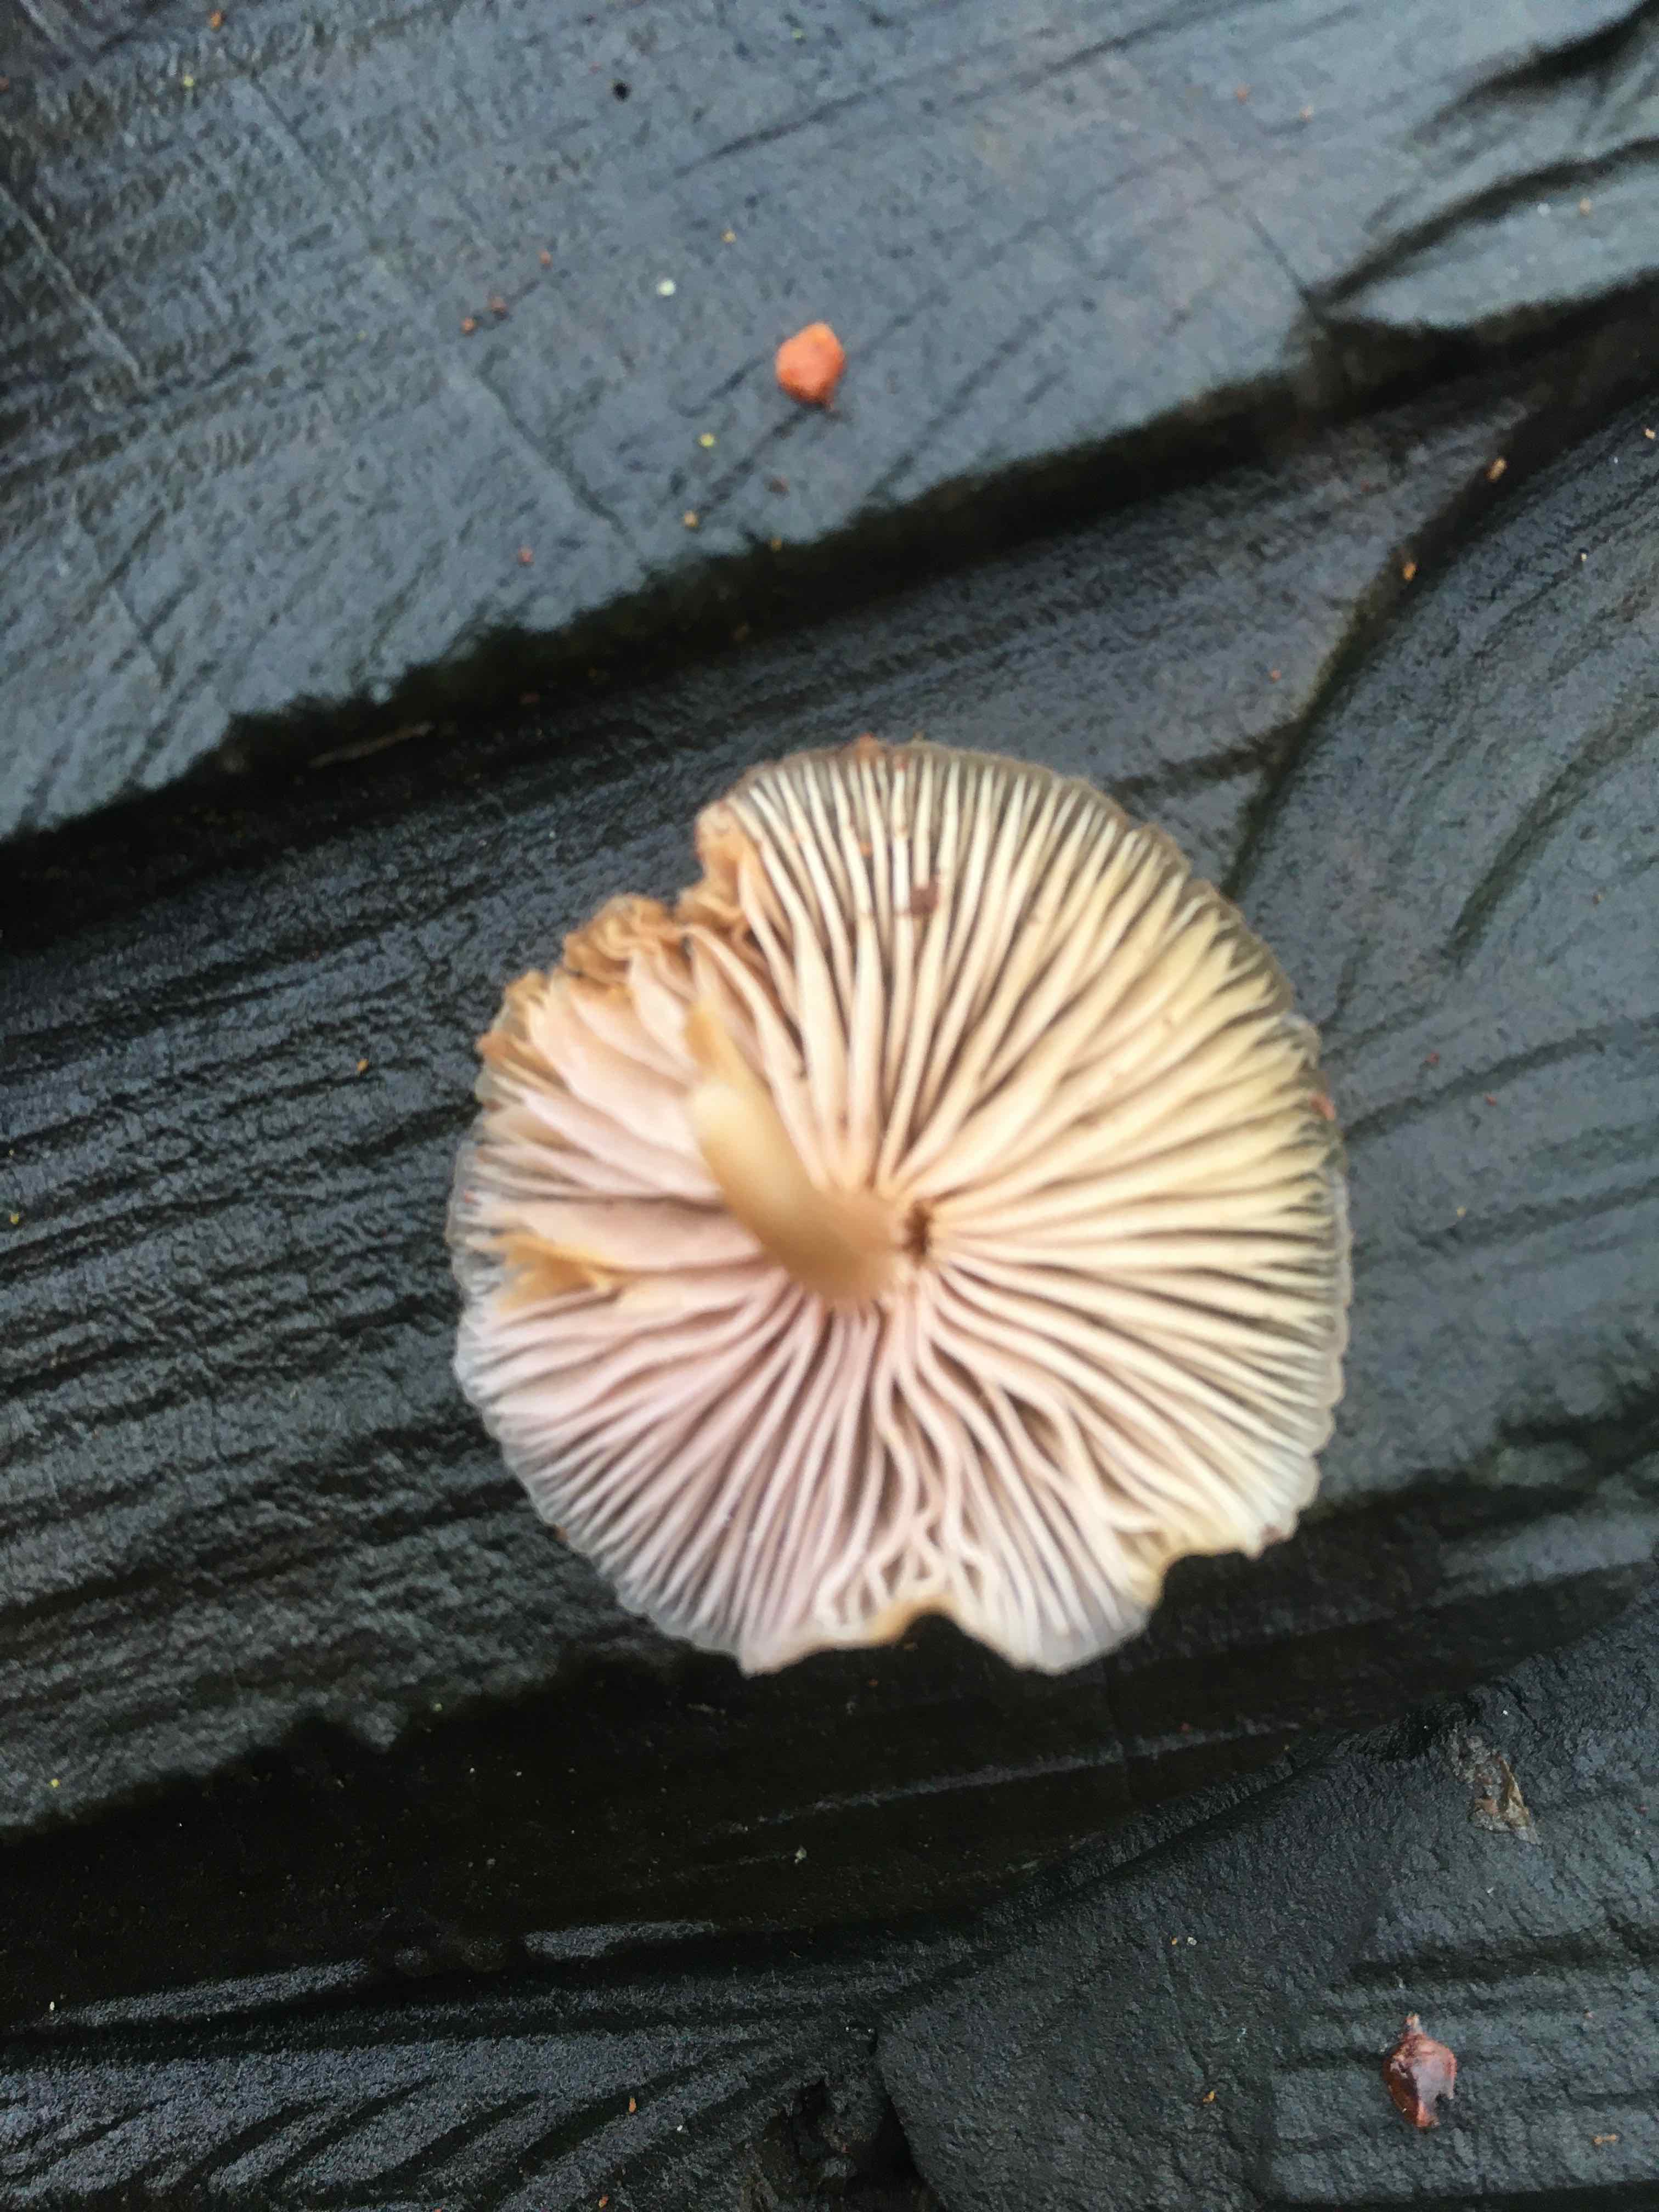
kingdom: Fungi
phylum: Basidiomycota
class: Agaricomycetes
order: Agaricales
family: Mycenaceae
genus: Mycena
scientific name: Mycena tintinnabulum
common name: vinter-huesvamp
